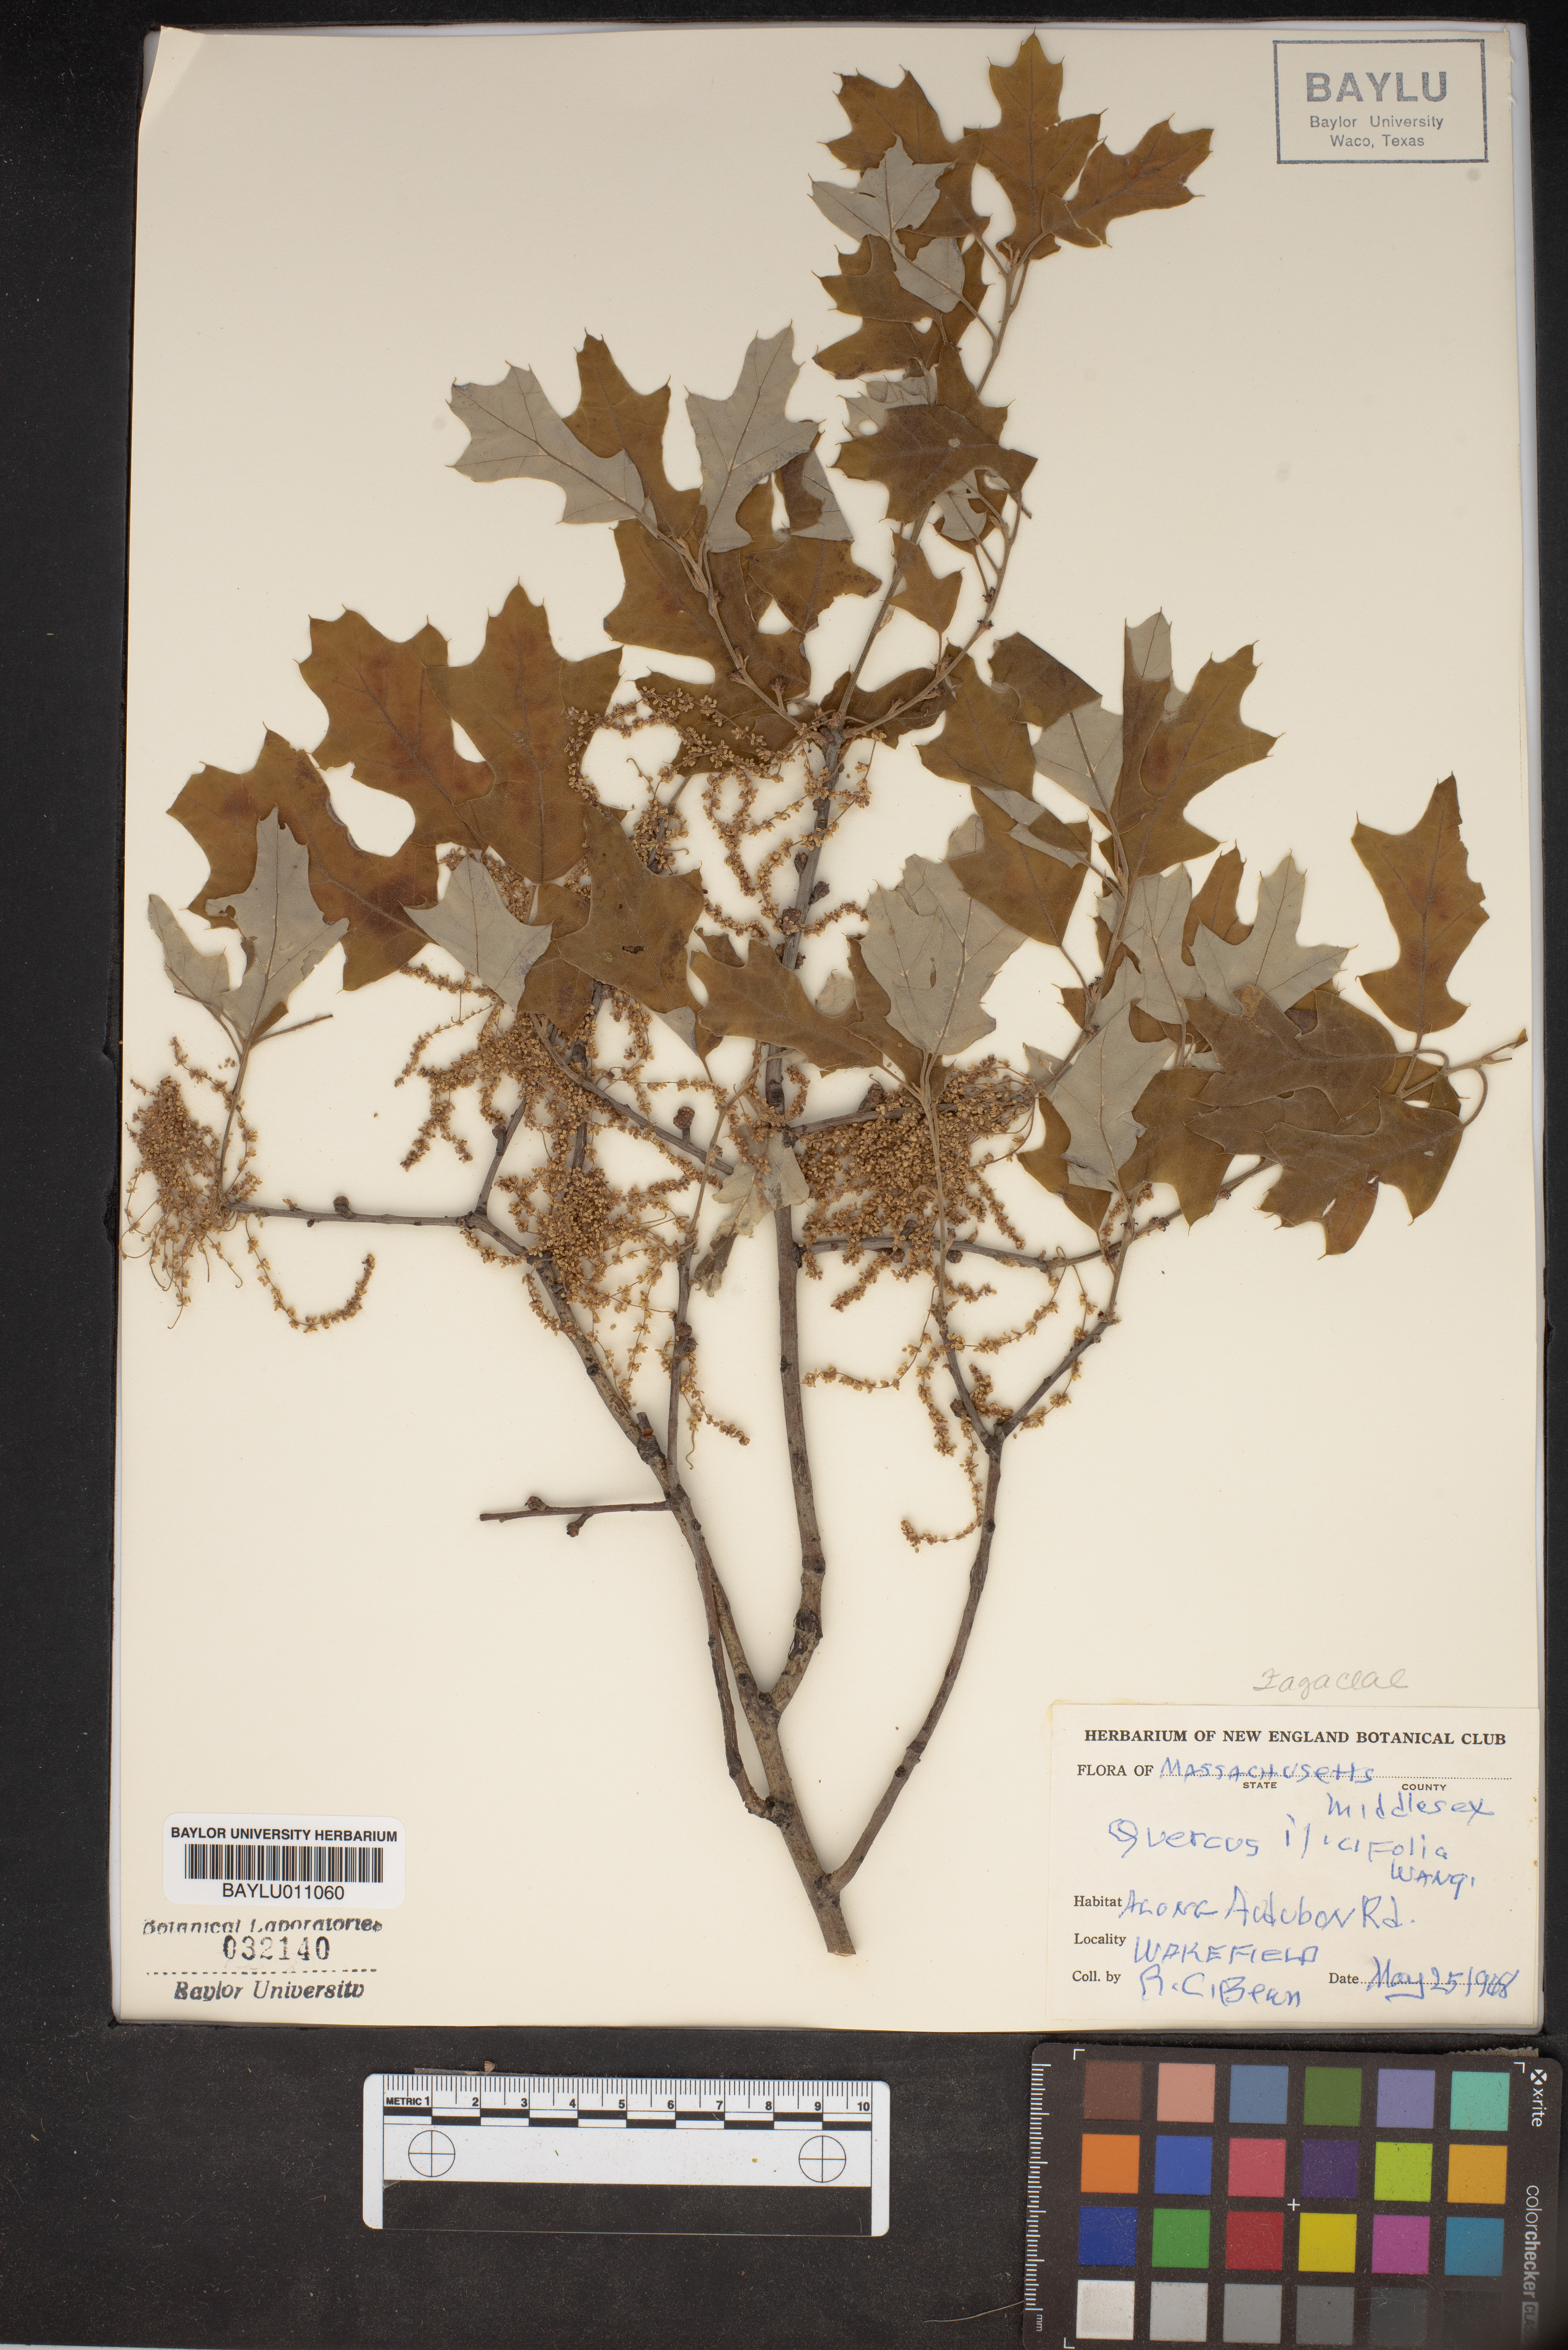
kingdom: Plantae
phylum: Tracheophyta
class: Magnoliopsida
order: Fagales
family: Fagaceae
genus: Quercus
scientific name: Quercus ilicifolia
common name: Bear oak
